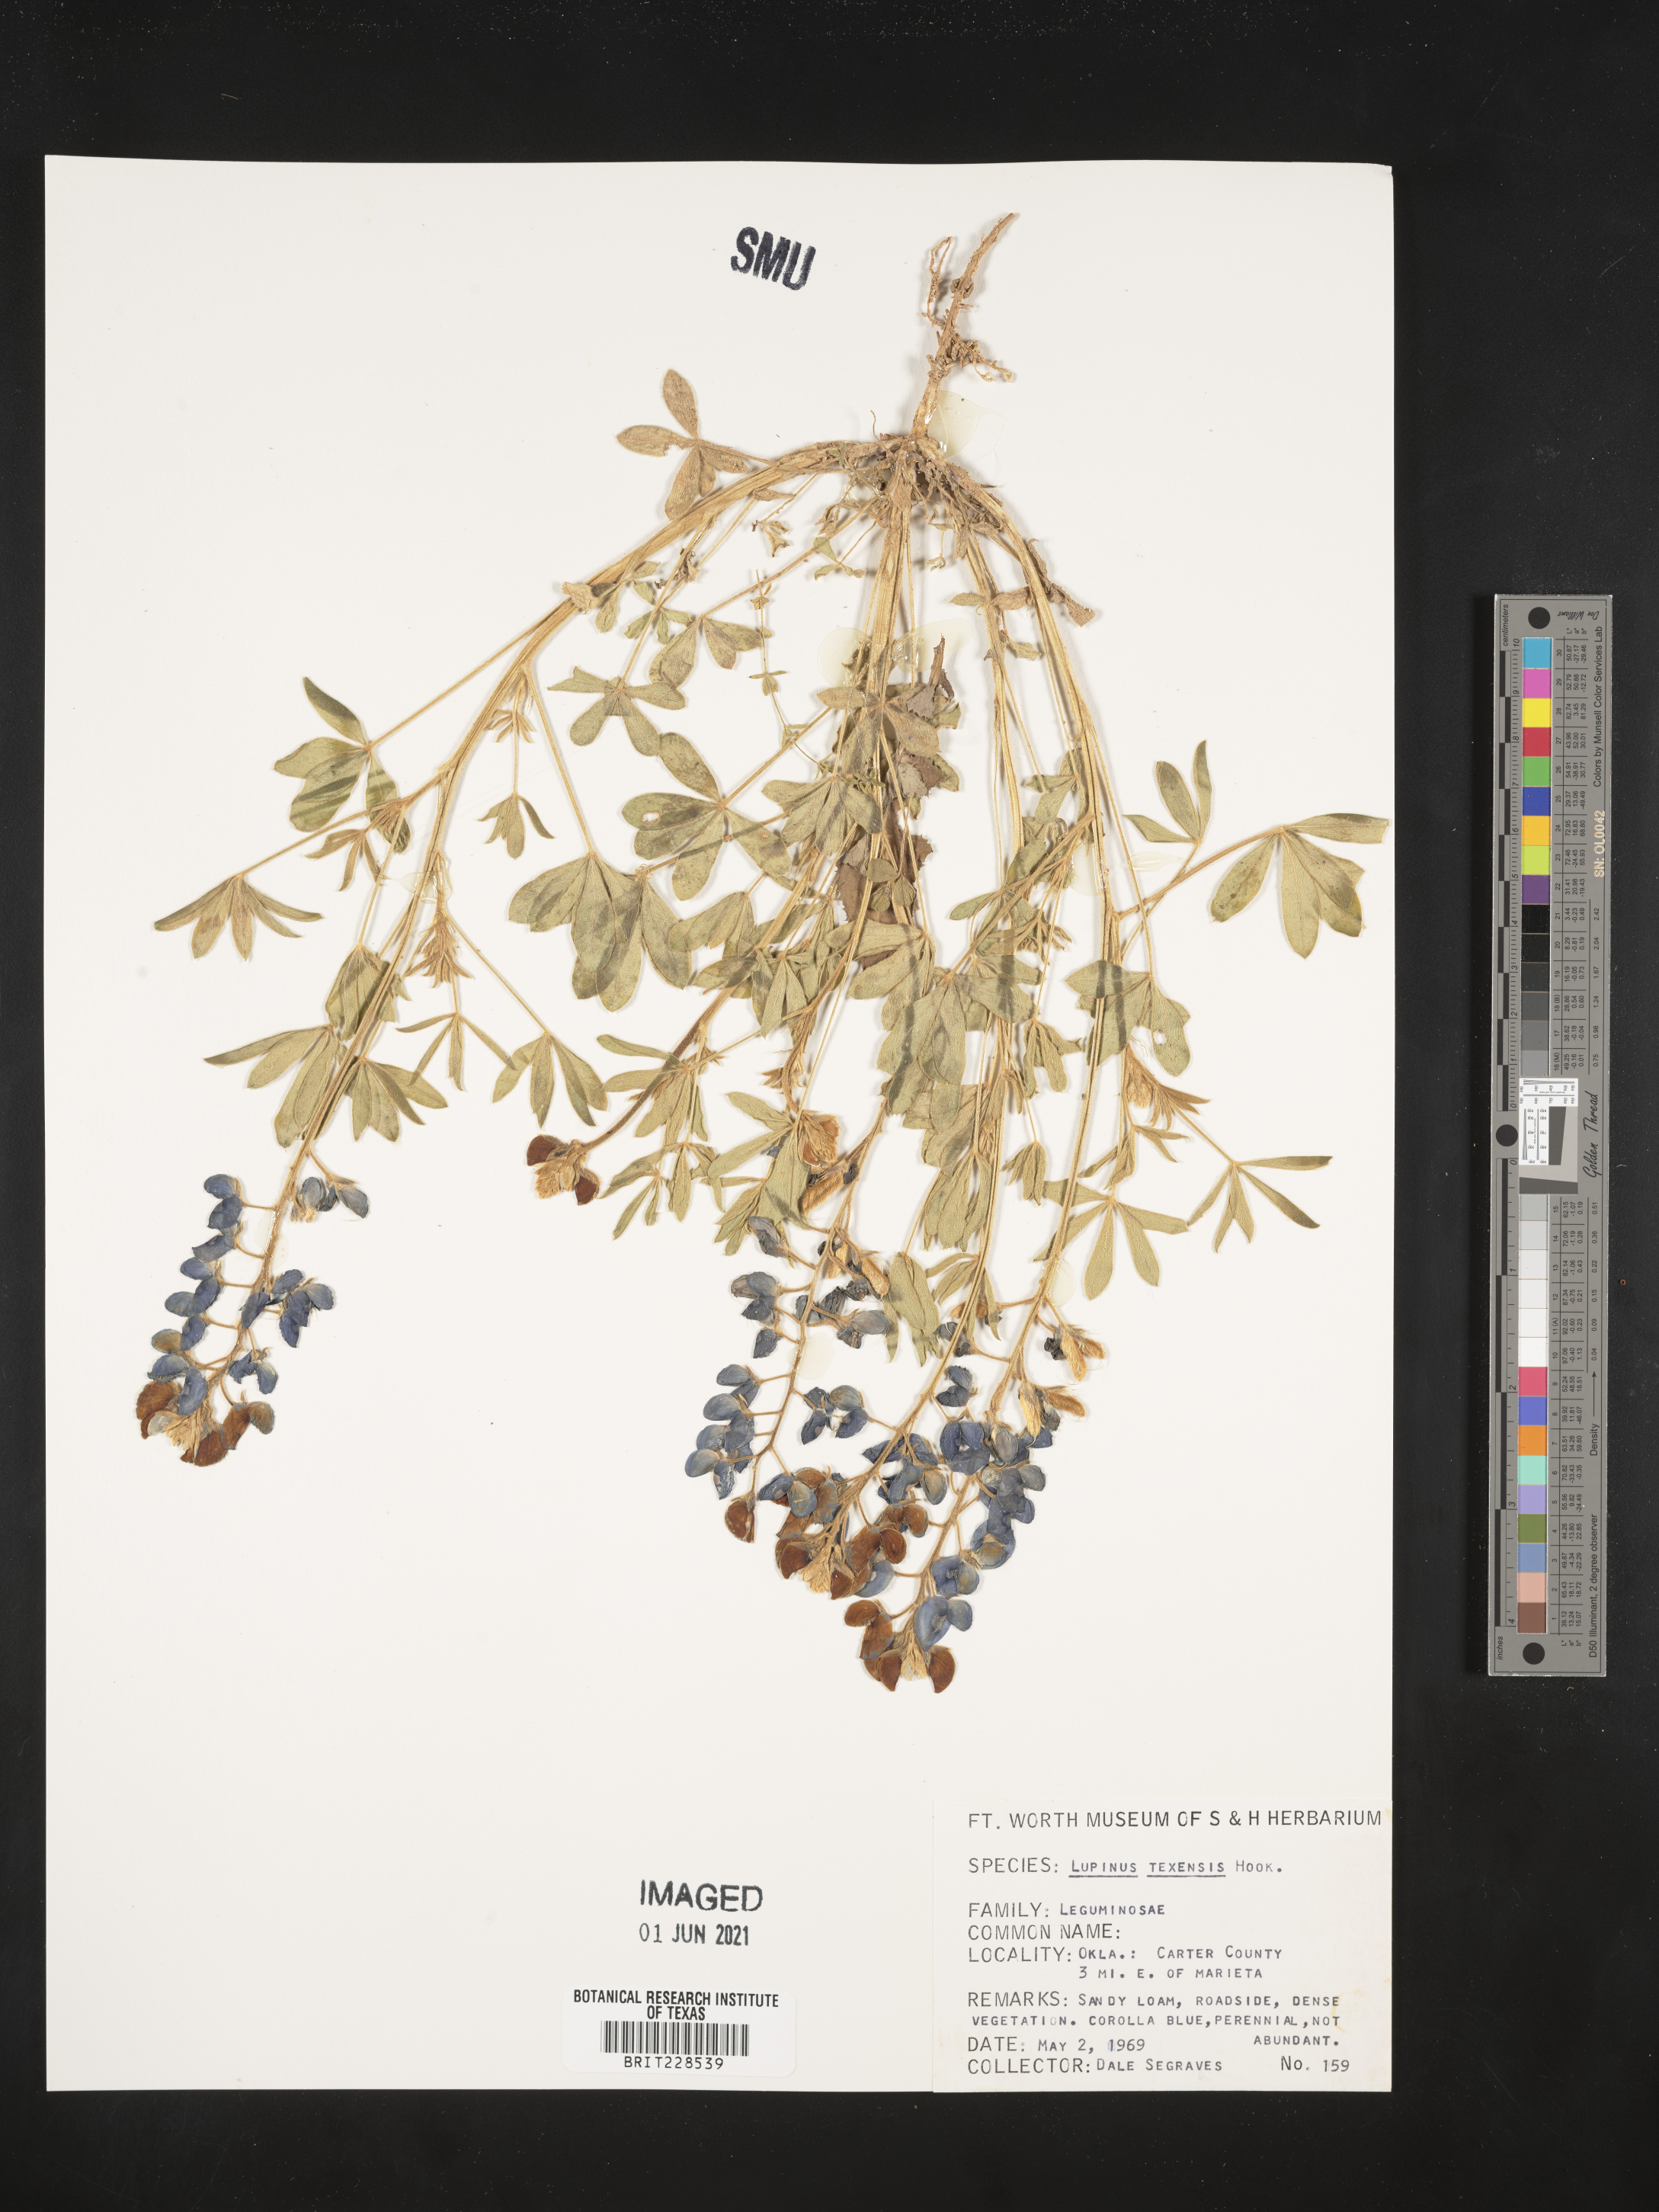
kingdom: Plantae
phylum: Tracheophyta
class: Magnoliopsida
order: Fabales
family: Fabaceae
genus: Lupinus
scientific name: Lupinus texensis
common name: Texas bluebonnet
